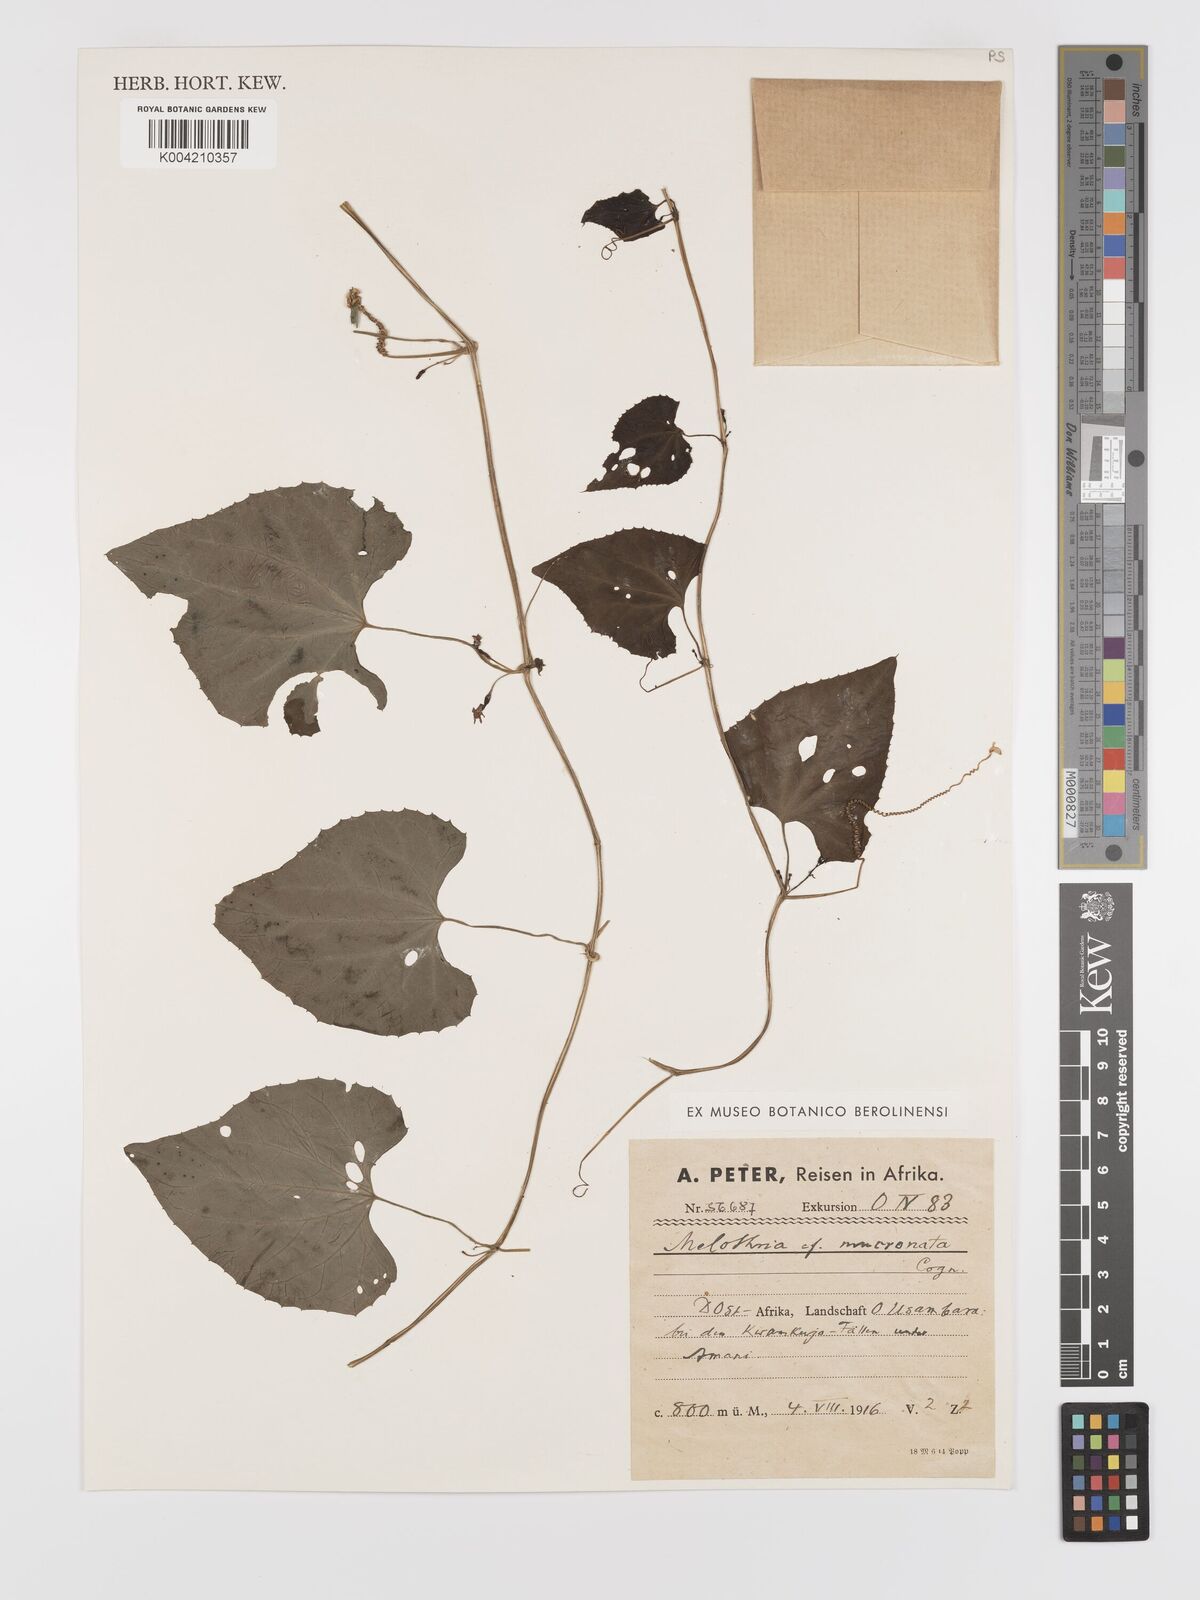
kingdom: Plantae
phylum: Tracheophyta
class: Magnoliopsida
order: Cucurbitales
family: Cucurbitaceae
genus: Zehneria
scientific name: Zehneria emirnensis
